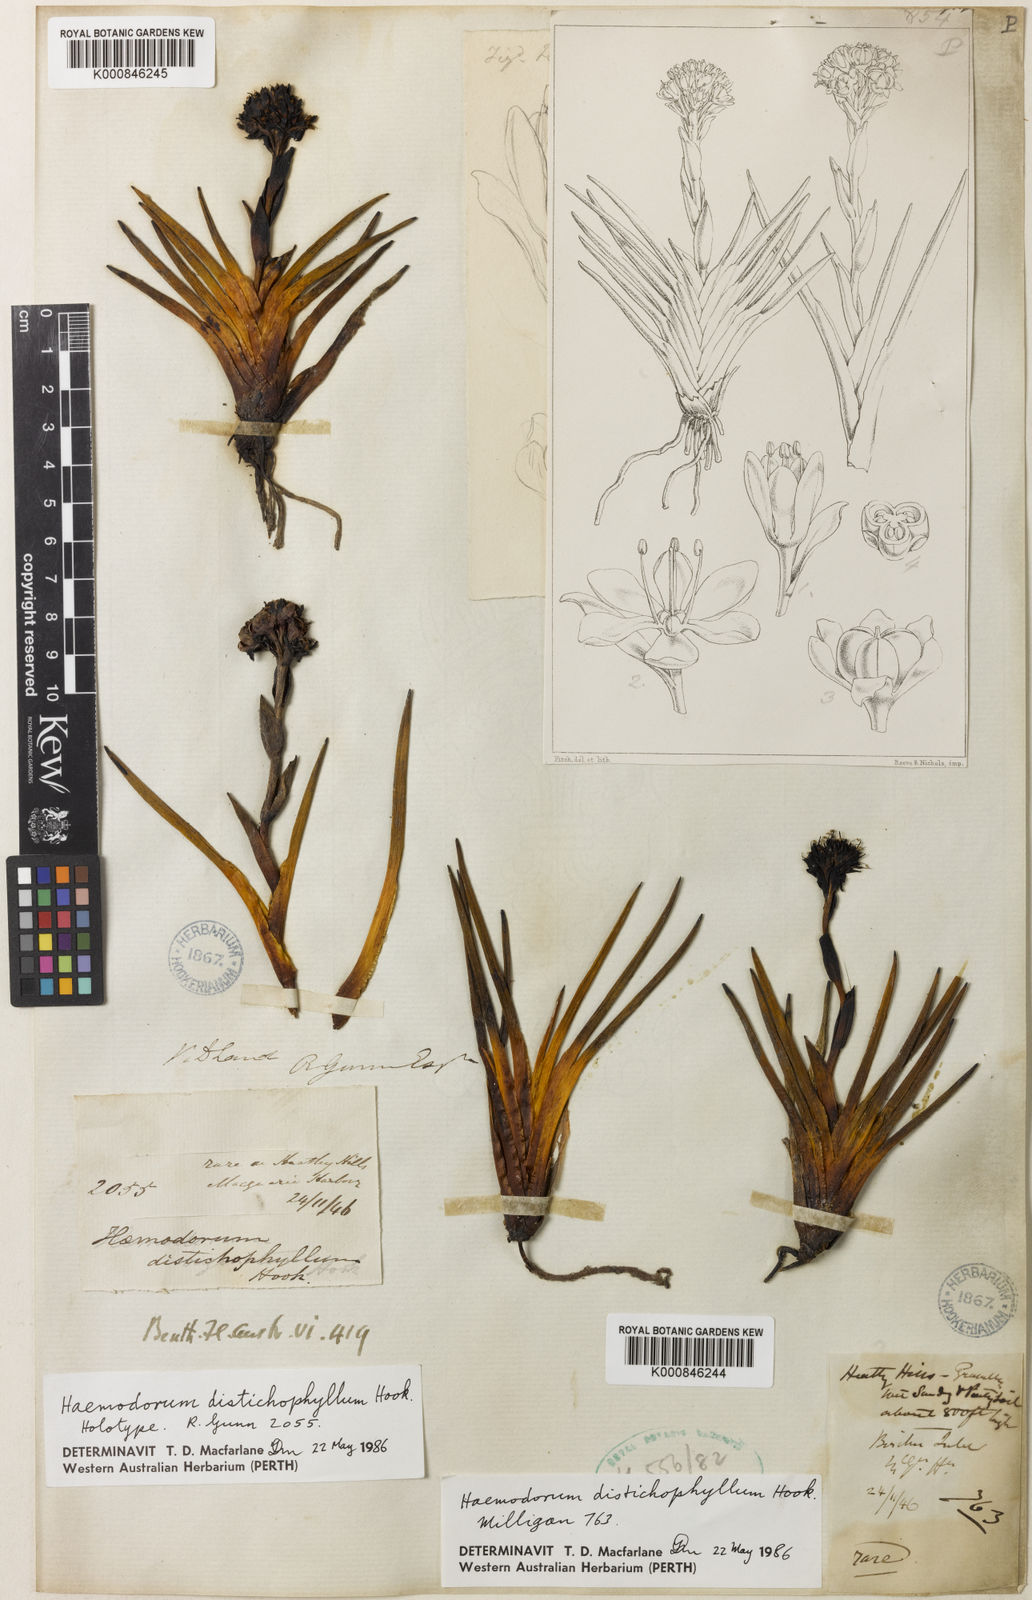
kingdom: Plantae
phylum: Tracheophyta
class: Liliopsida
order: Commelinales
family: Haemodoraceae
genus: Haemodorum
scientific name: Haemodorum distichophyllum
